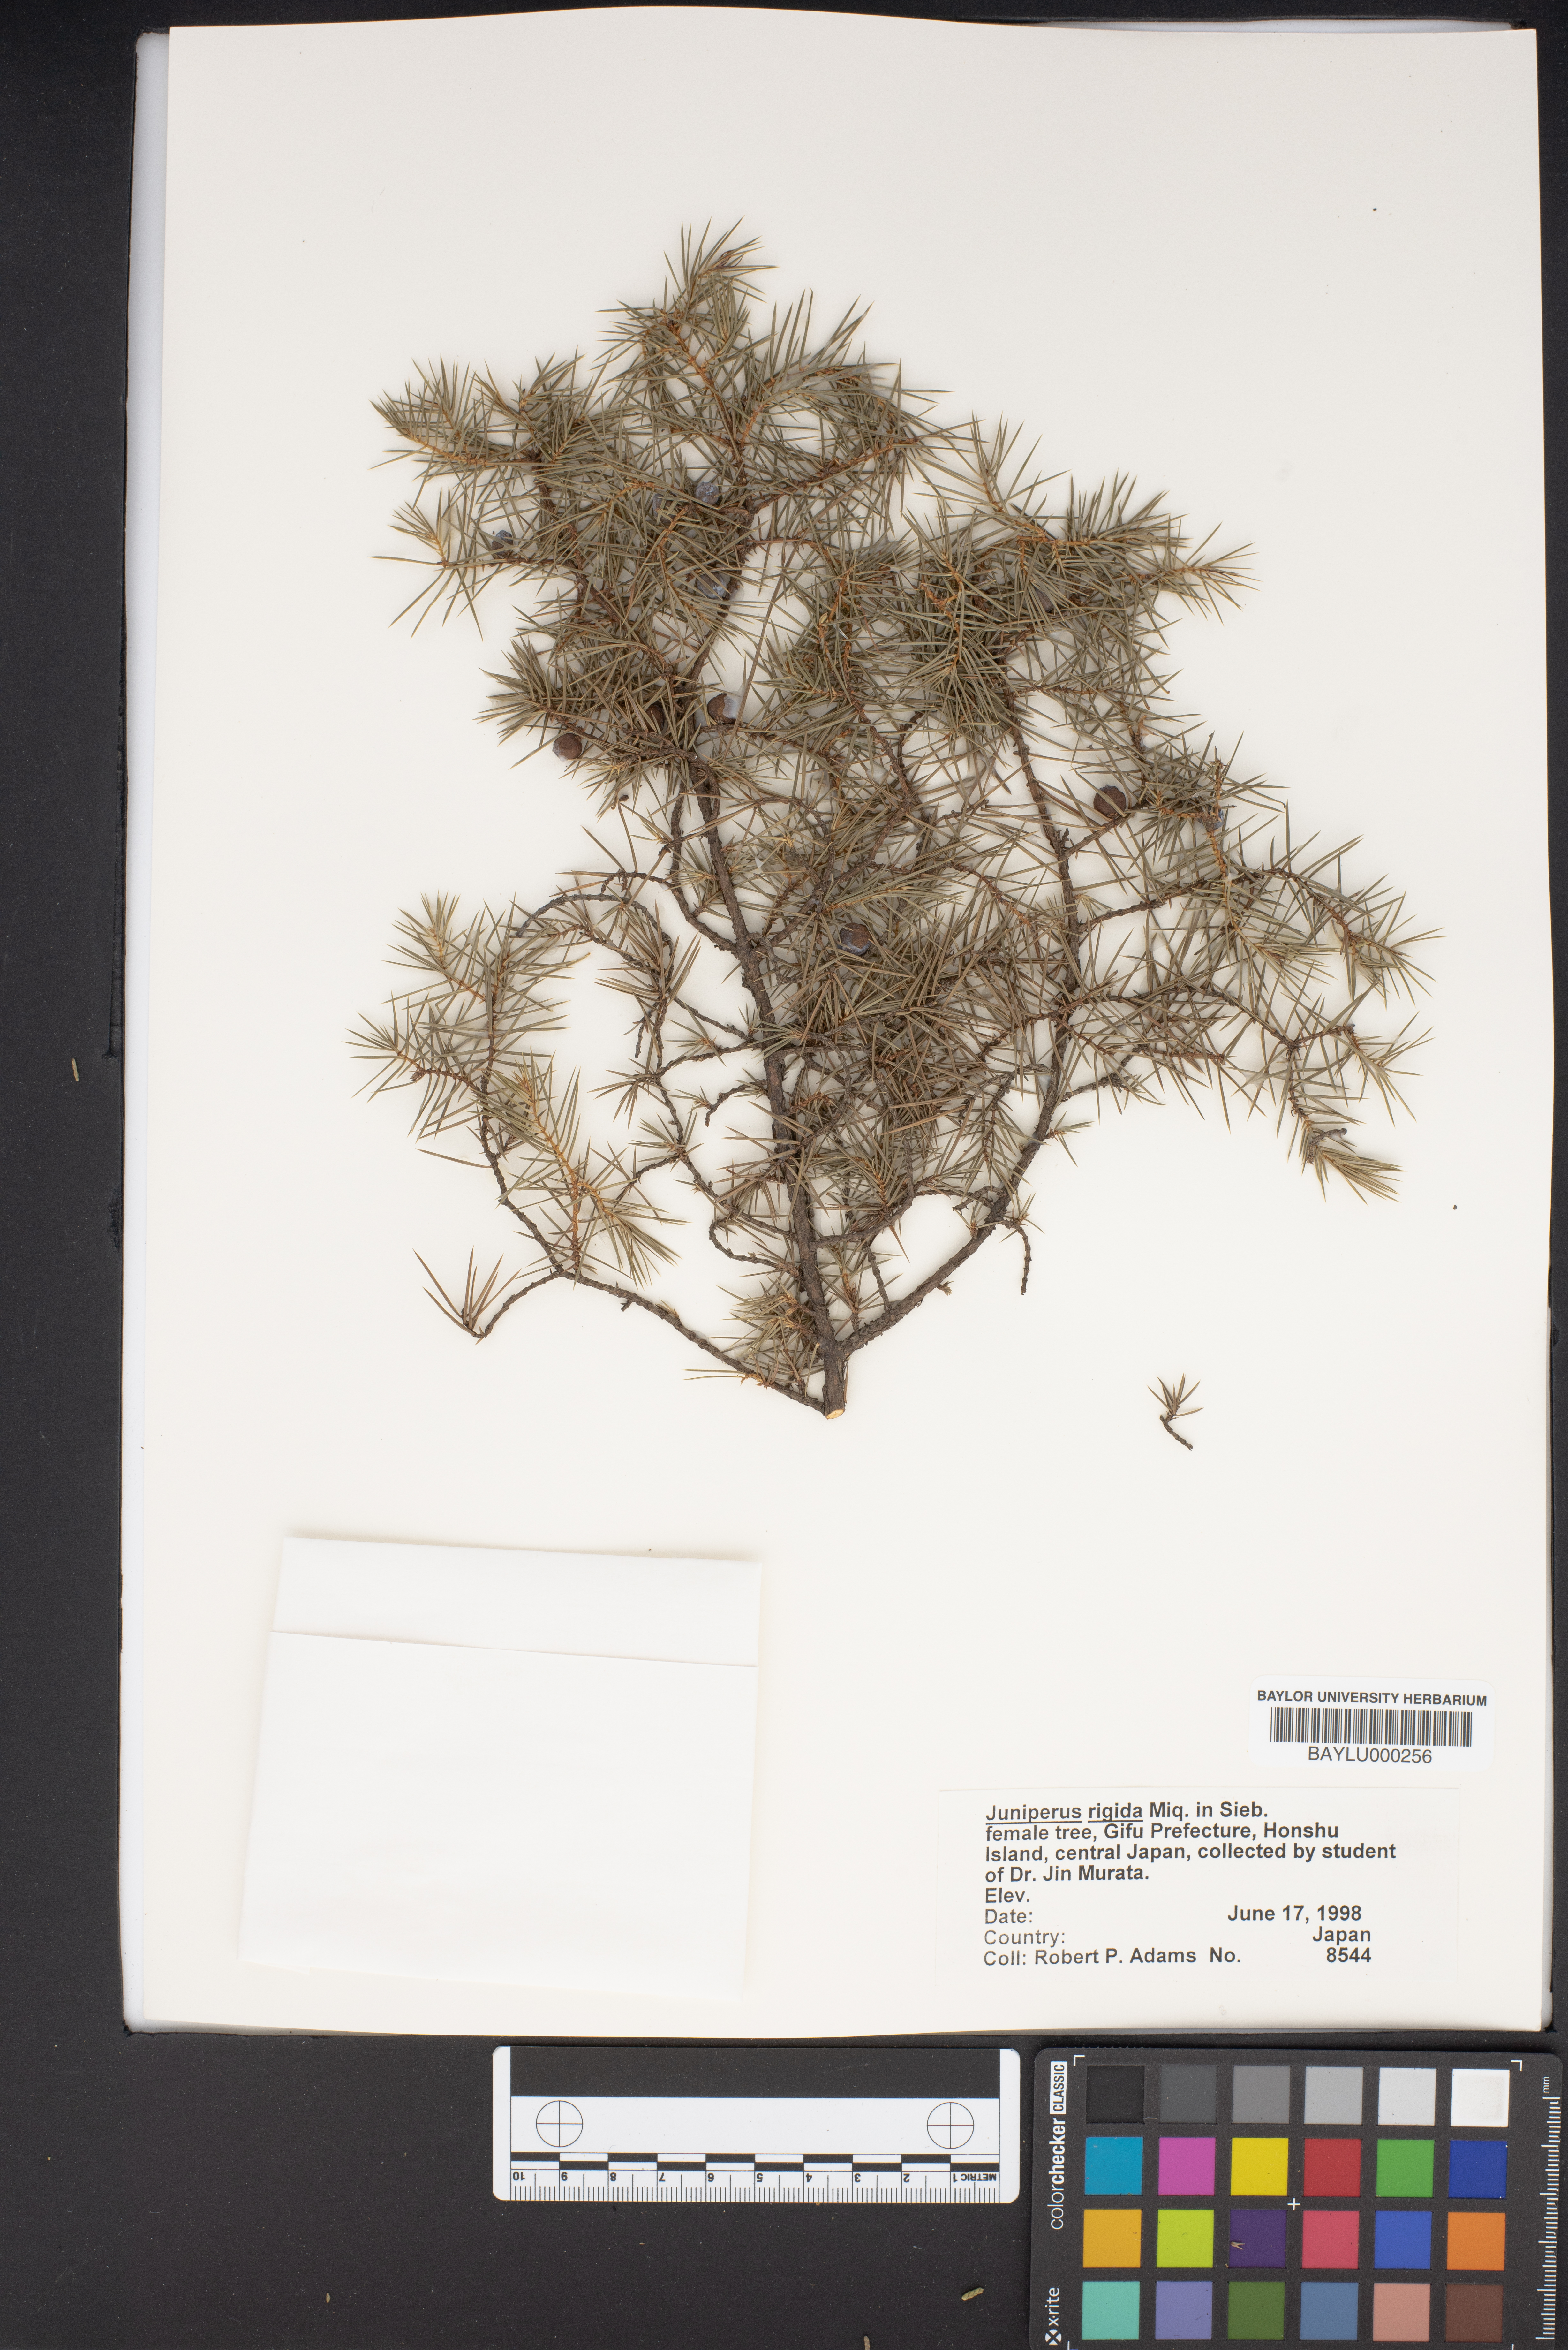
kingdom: Plantae
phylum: Tracheophyta
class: Pinopsida
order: Pinales
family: Cupressaceae
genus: Juniperus
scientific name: Juniperus rigida
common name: Needle juniper
